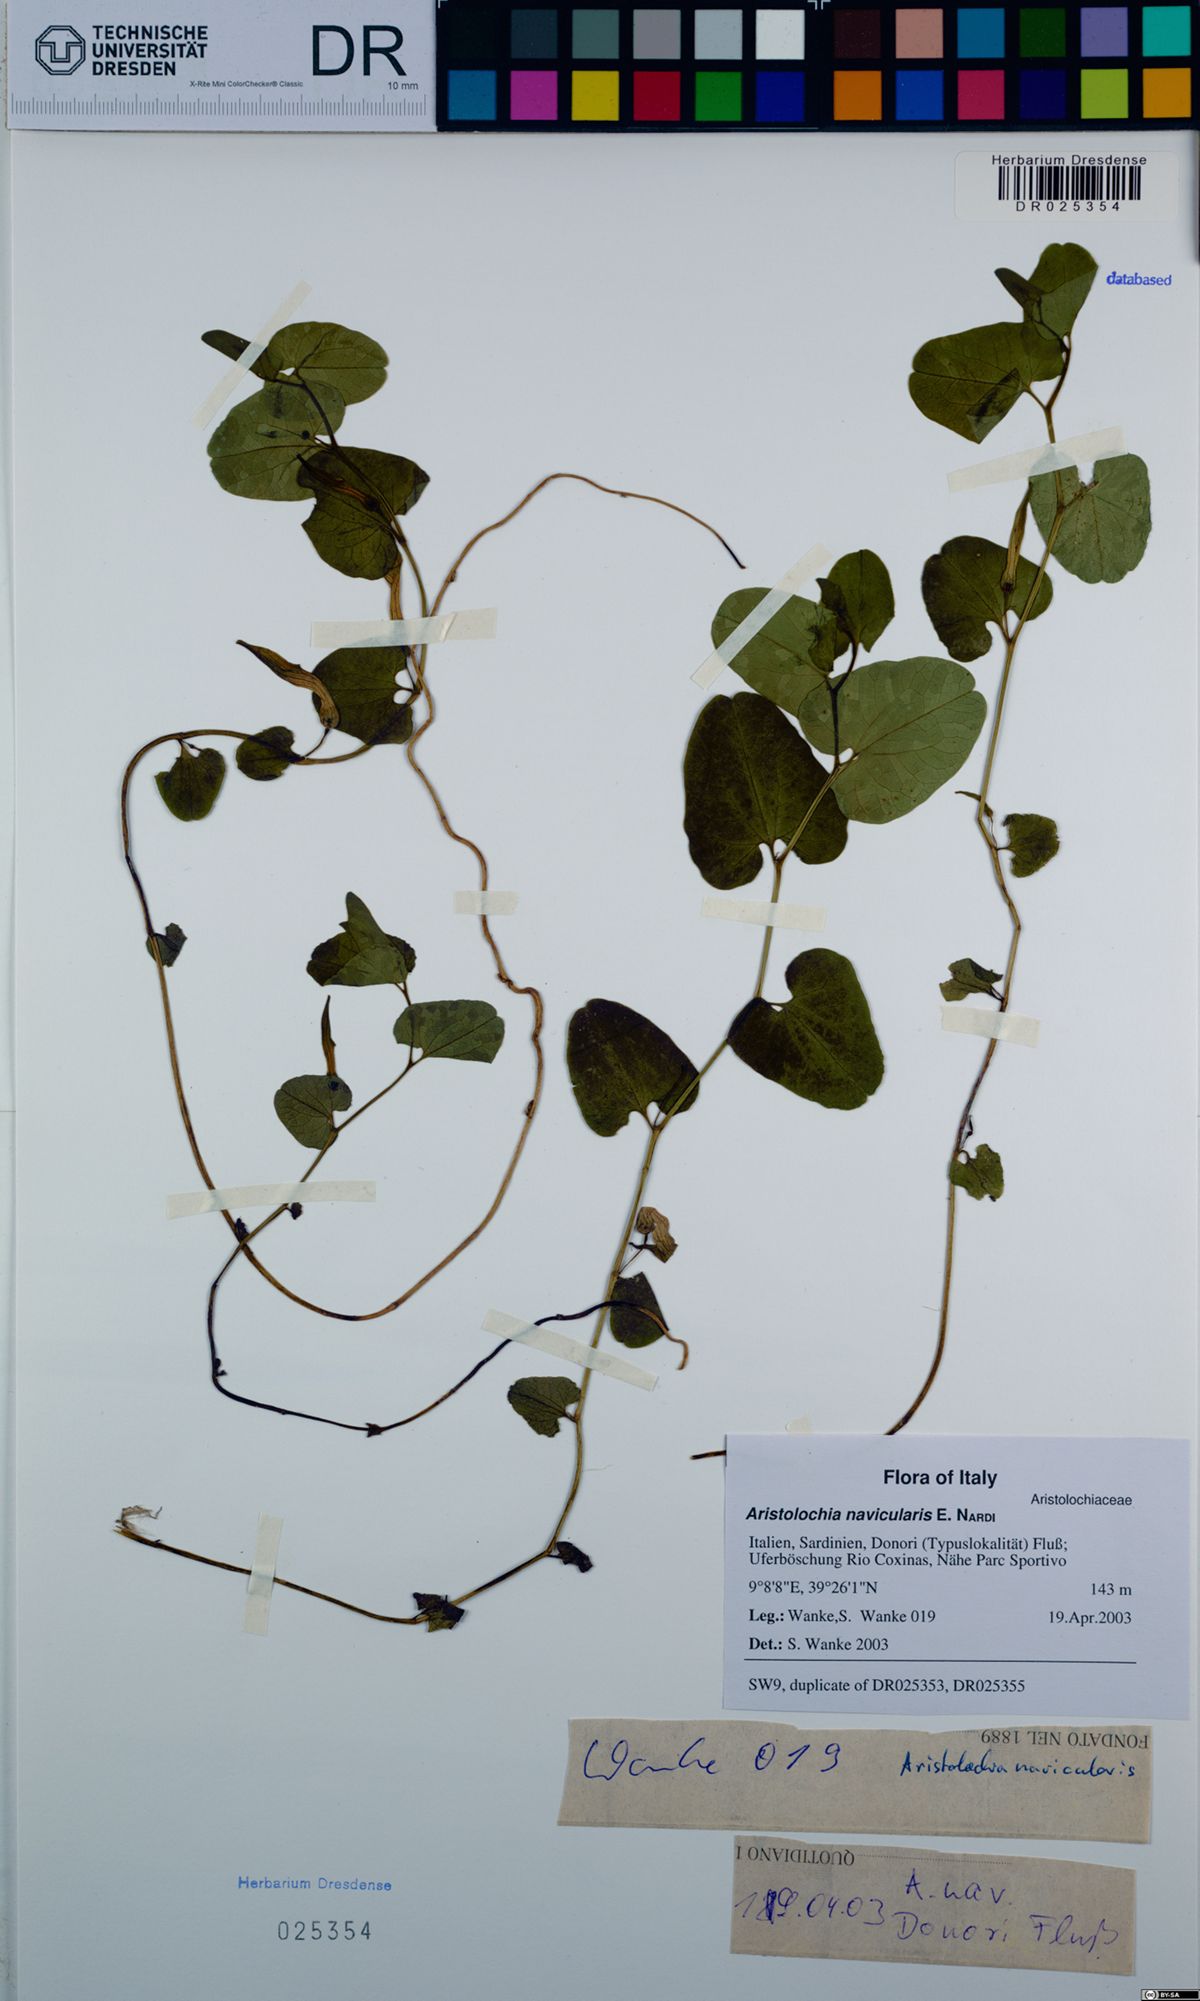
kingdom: Plantae
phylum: Tracheophyta
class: Magnoliopsida
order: Piperales
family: Aristolochiaceae
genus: Aristolochia
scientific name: Aristolochia navicularis
